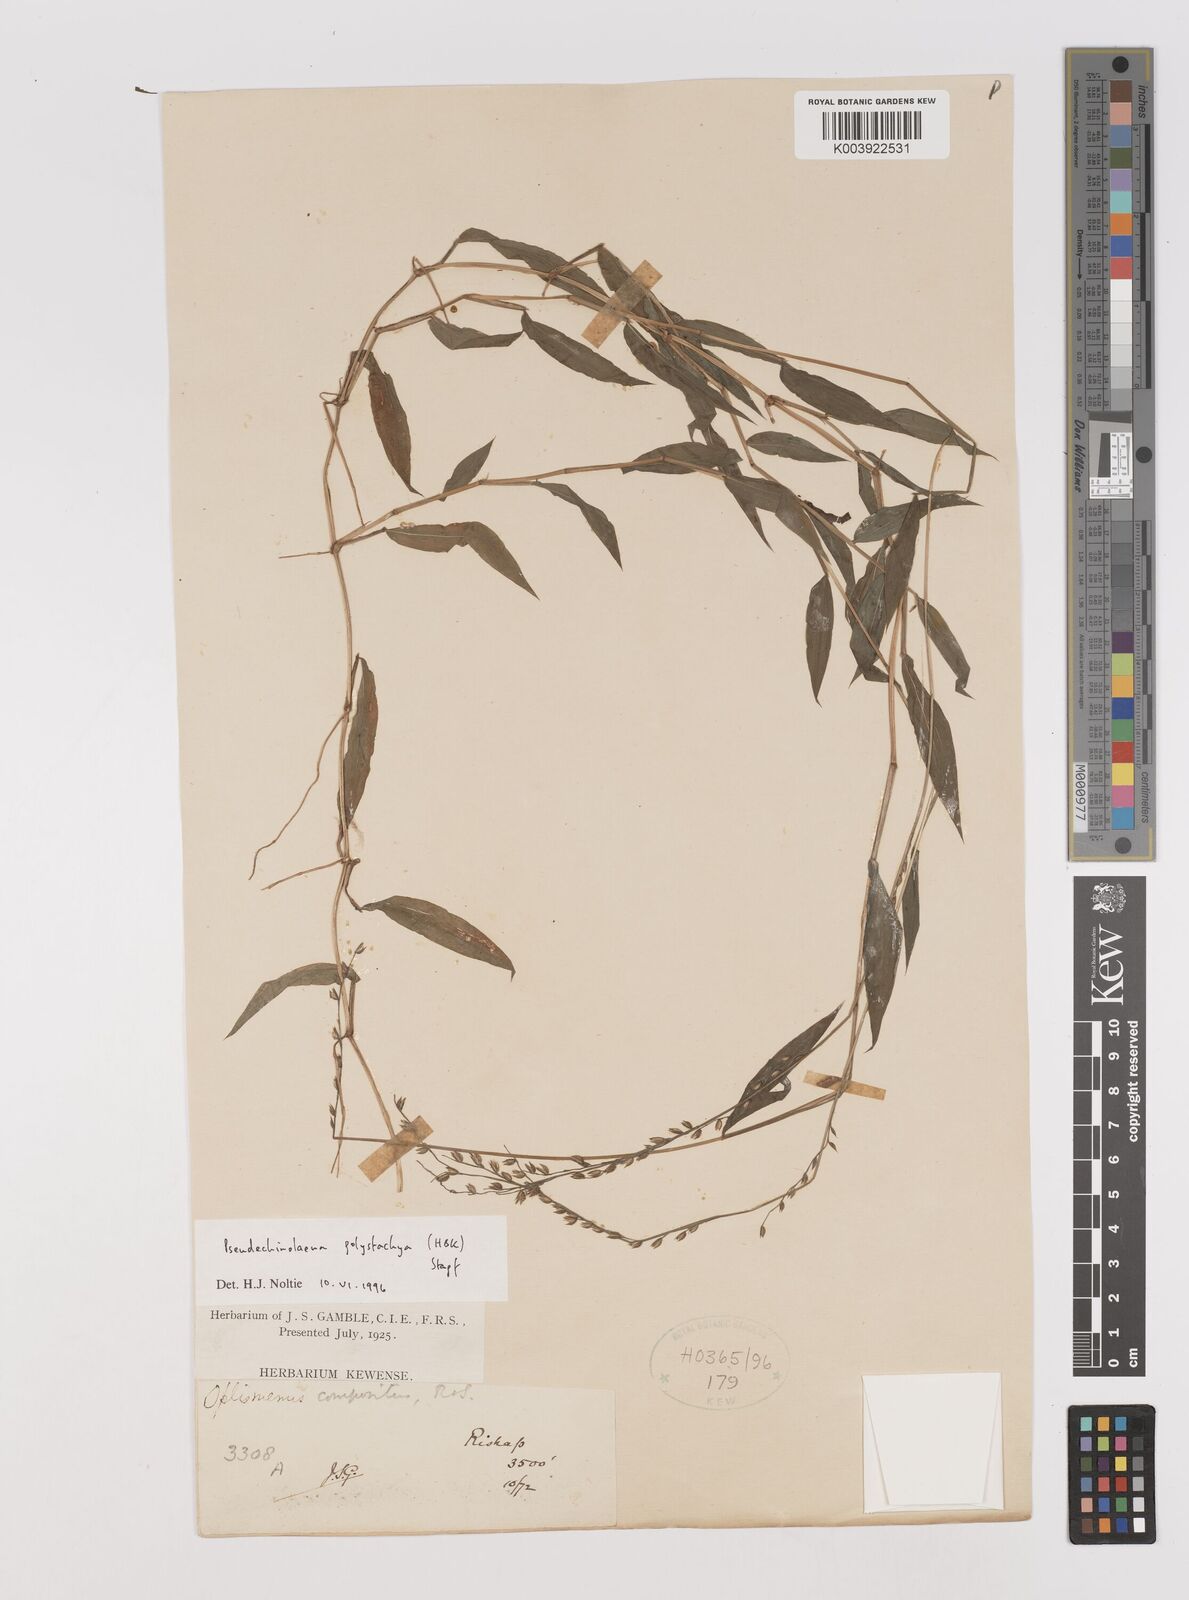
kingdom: Plantae
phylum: Tracheophyta
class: Liliopsida
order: Poales
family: Poaceae
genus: Pseudechinolaena
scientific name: Pseudechinolaena polystachya
